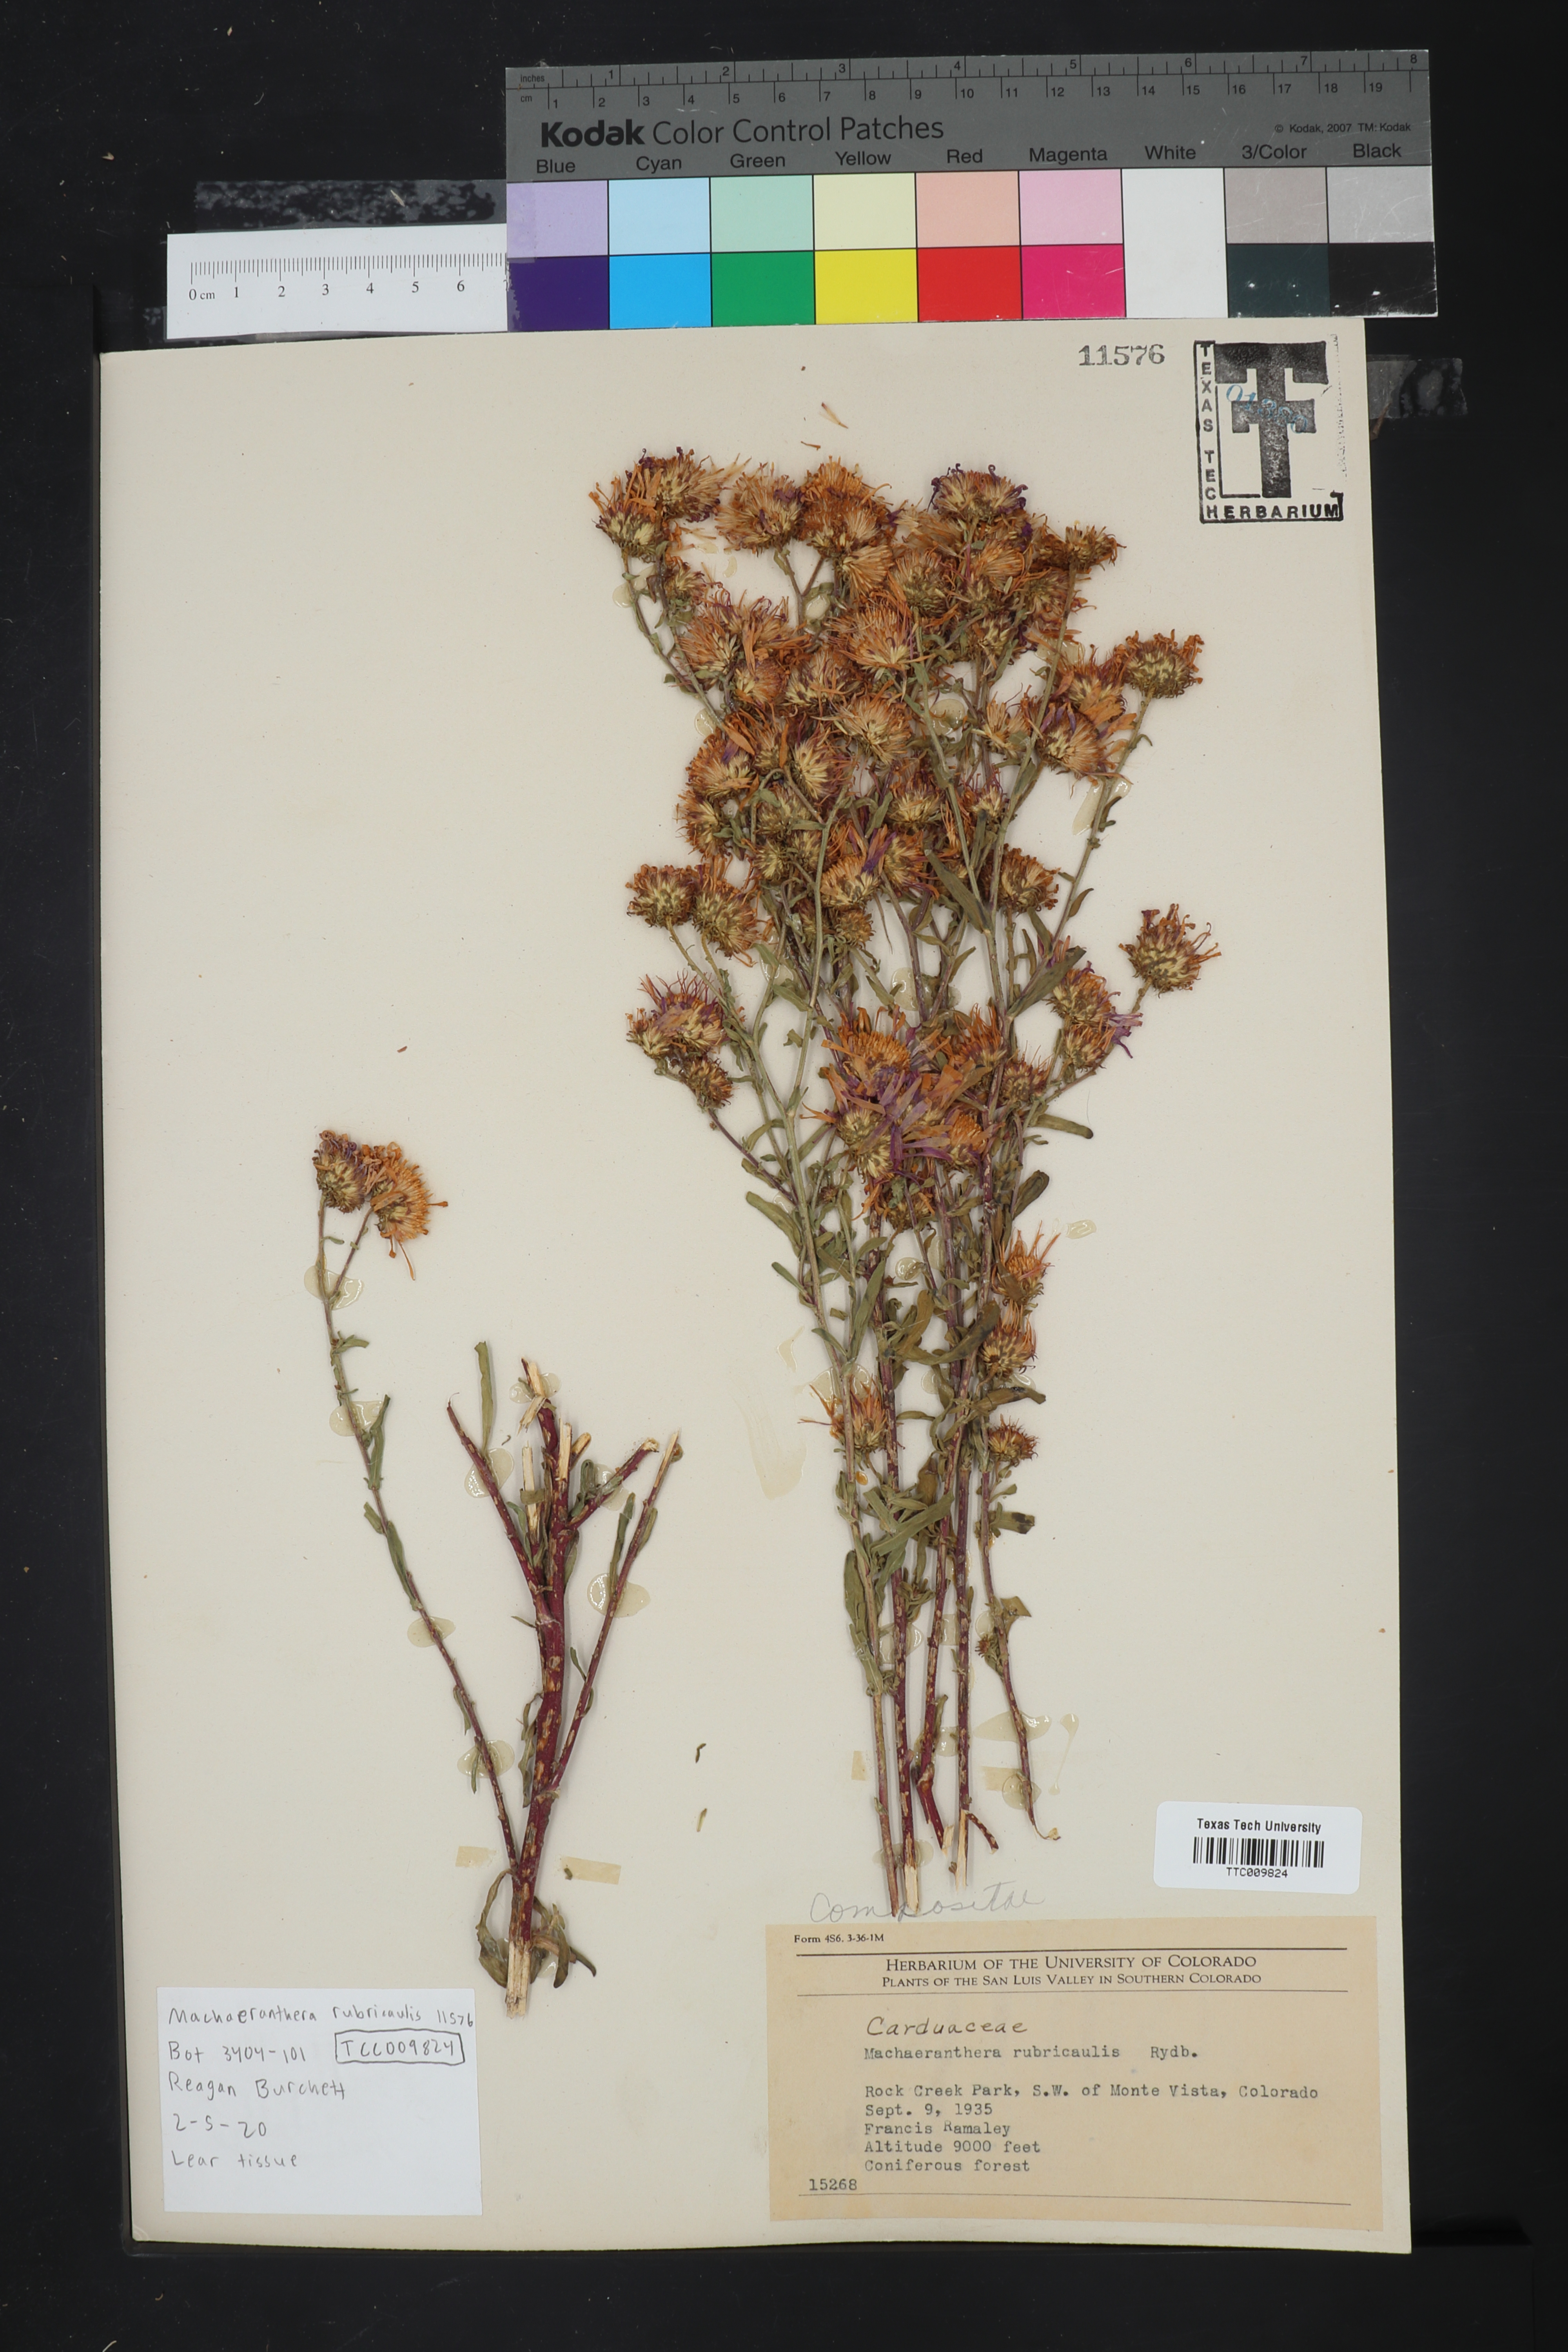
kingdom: Plantae
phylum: Tracheophyta
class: Magnoliopsida
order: Asterales
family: Asteraceae
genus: Dieteria
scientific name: Dieteria bigelovii
